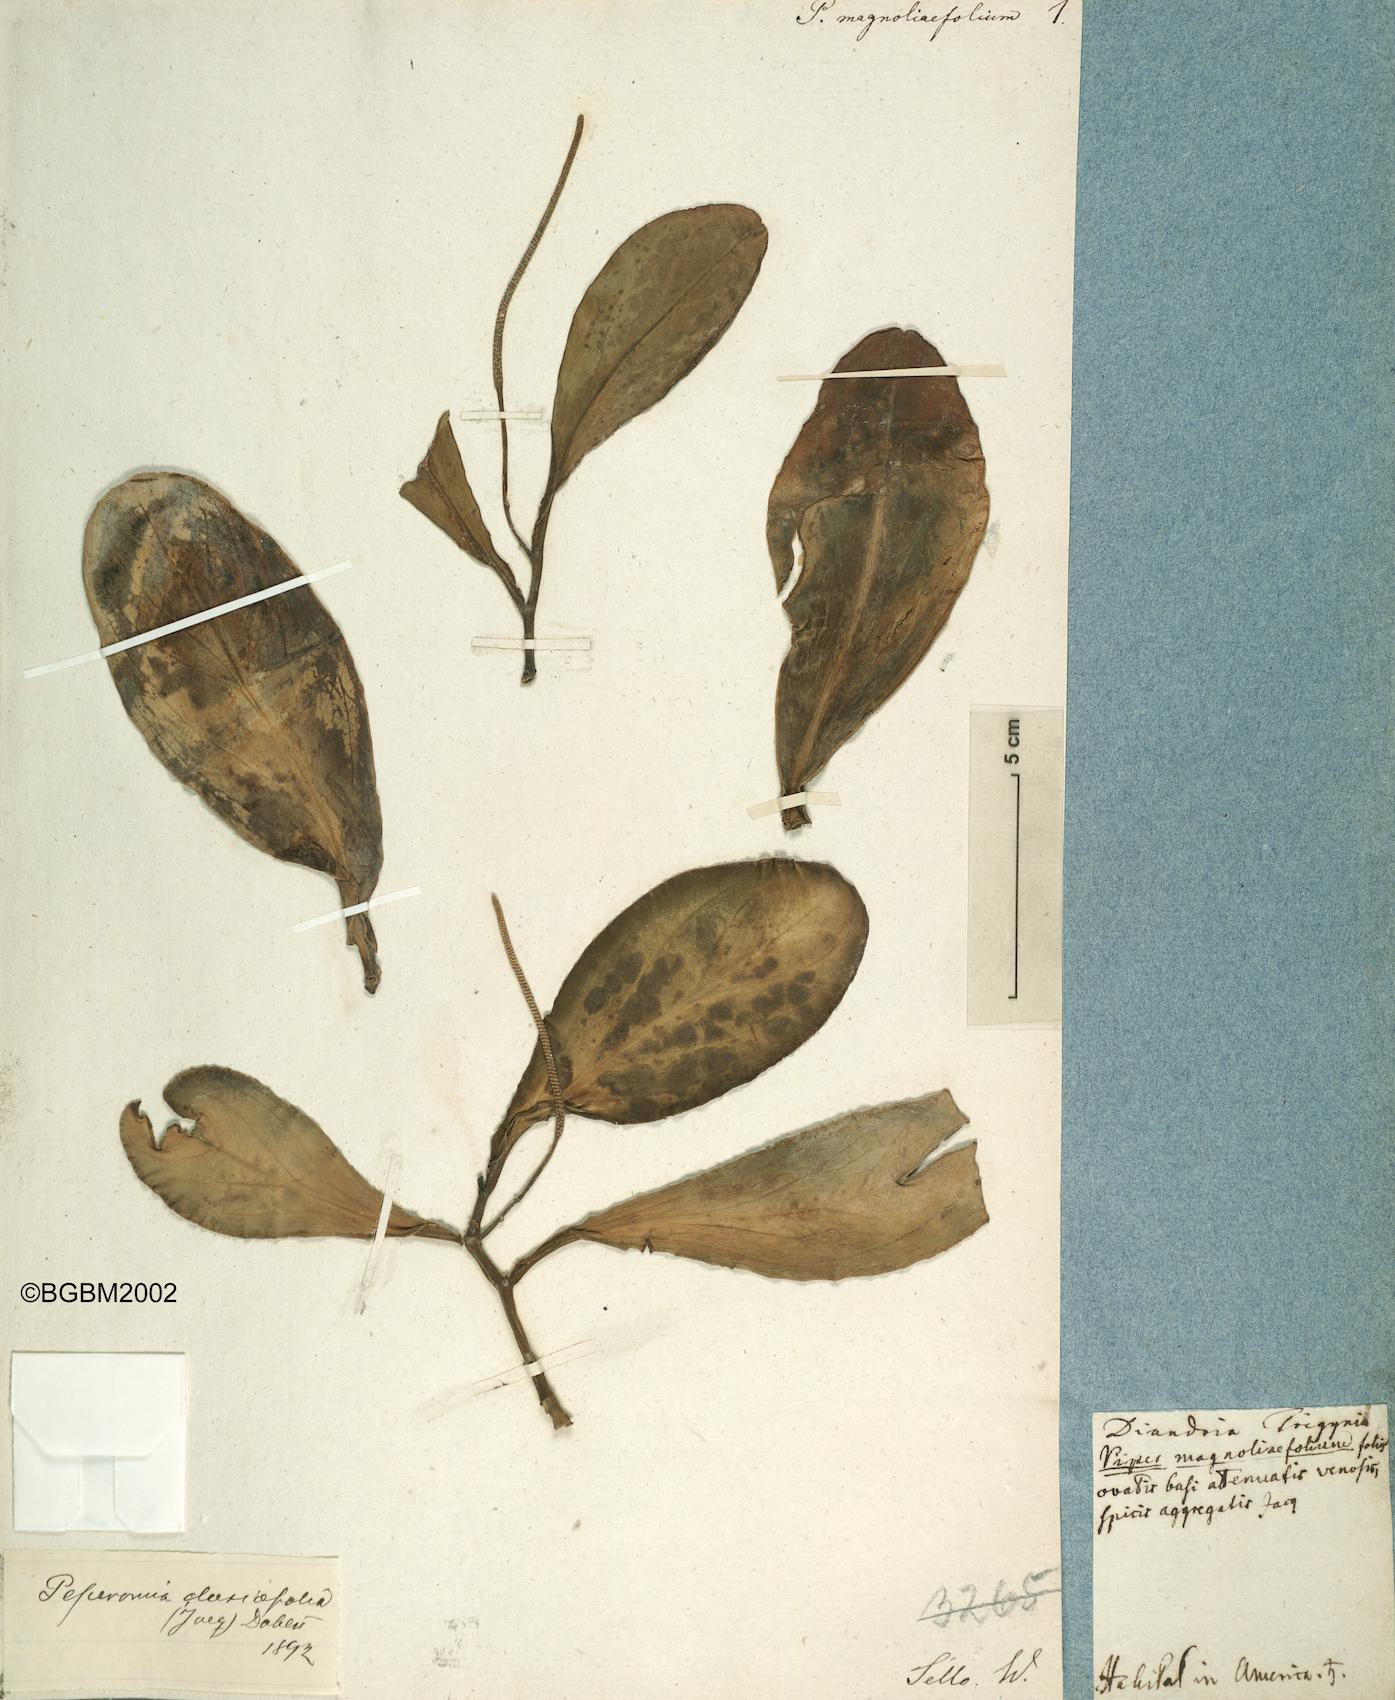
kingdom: Plantae
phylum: Tracheophyta
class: Magnoliopsida
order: Piperales
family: Piperaceae
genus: Peperomia
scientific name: Peperomia clusiifolia
